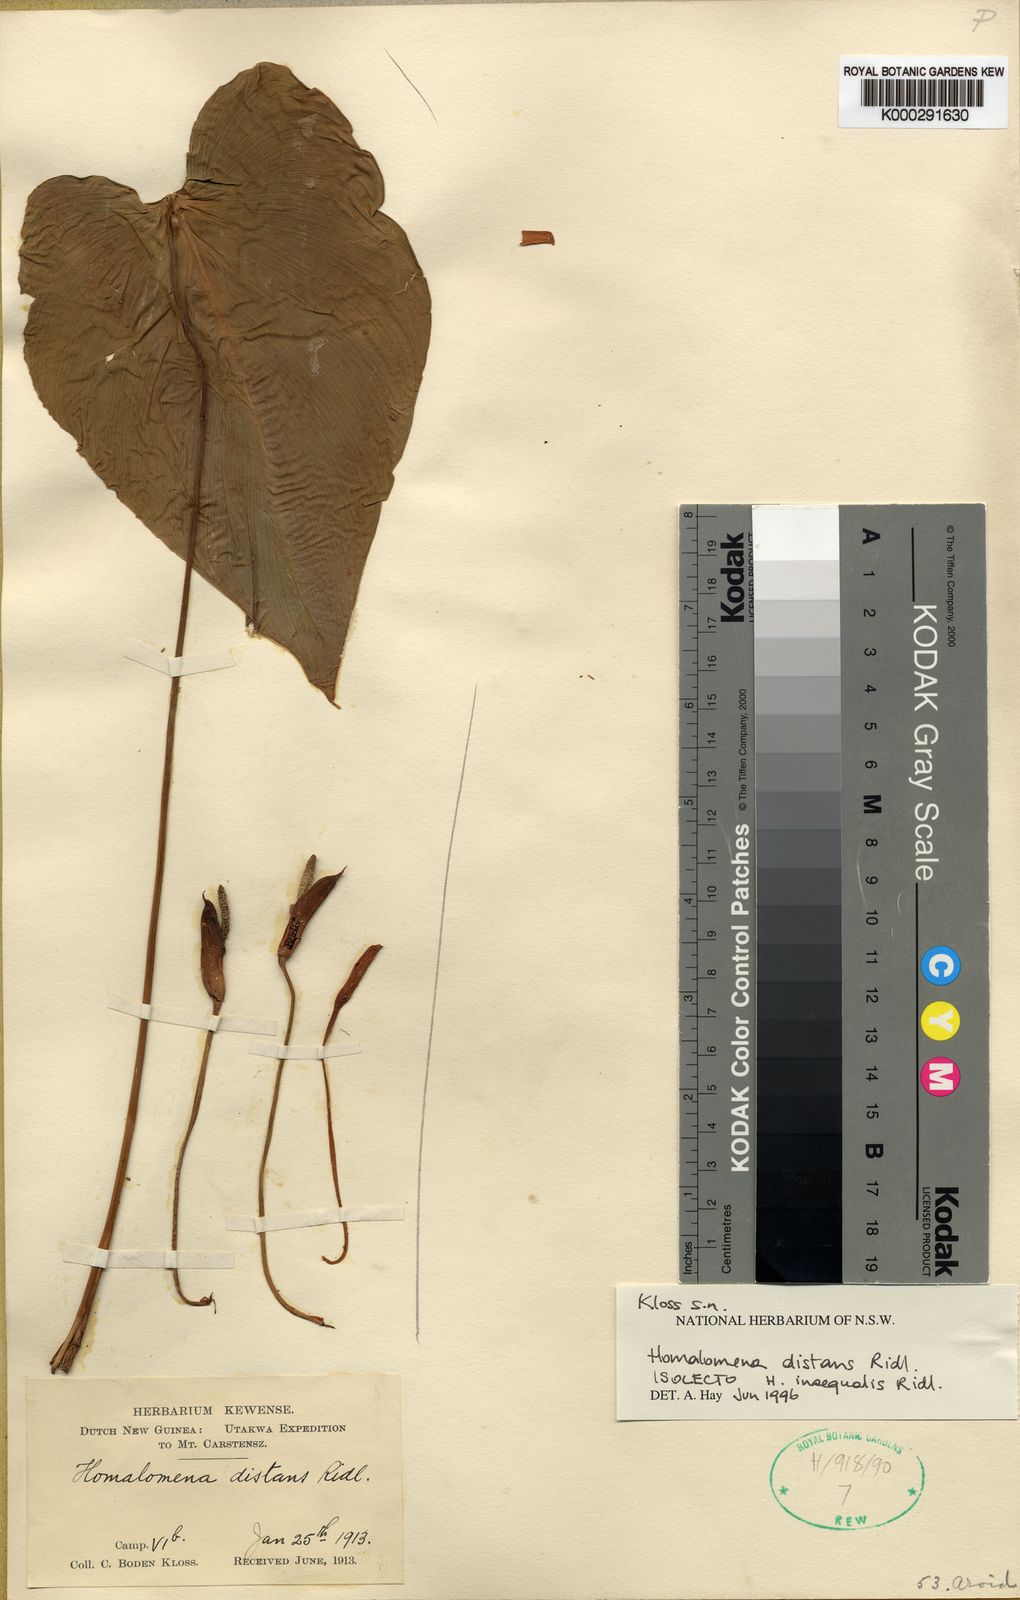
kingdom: Plantae
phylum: Tracheophyta
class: Liliopsida
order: Alismatales
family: Araceae
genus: Homalomena
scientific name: Homalomena distans
